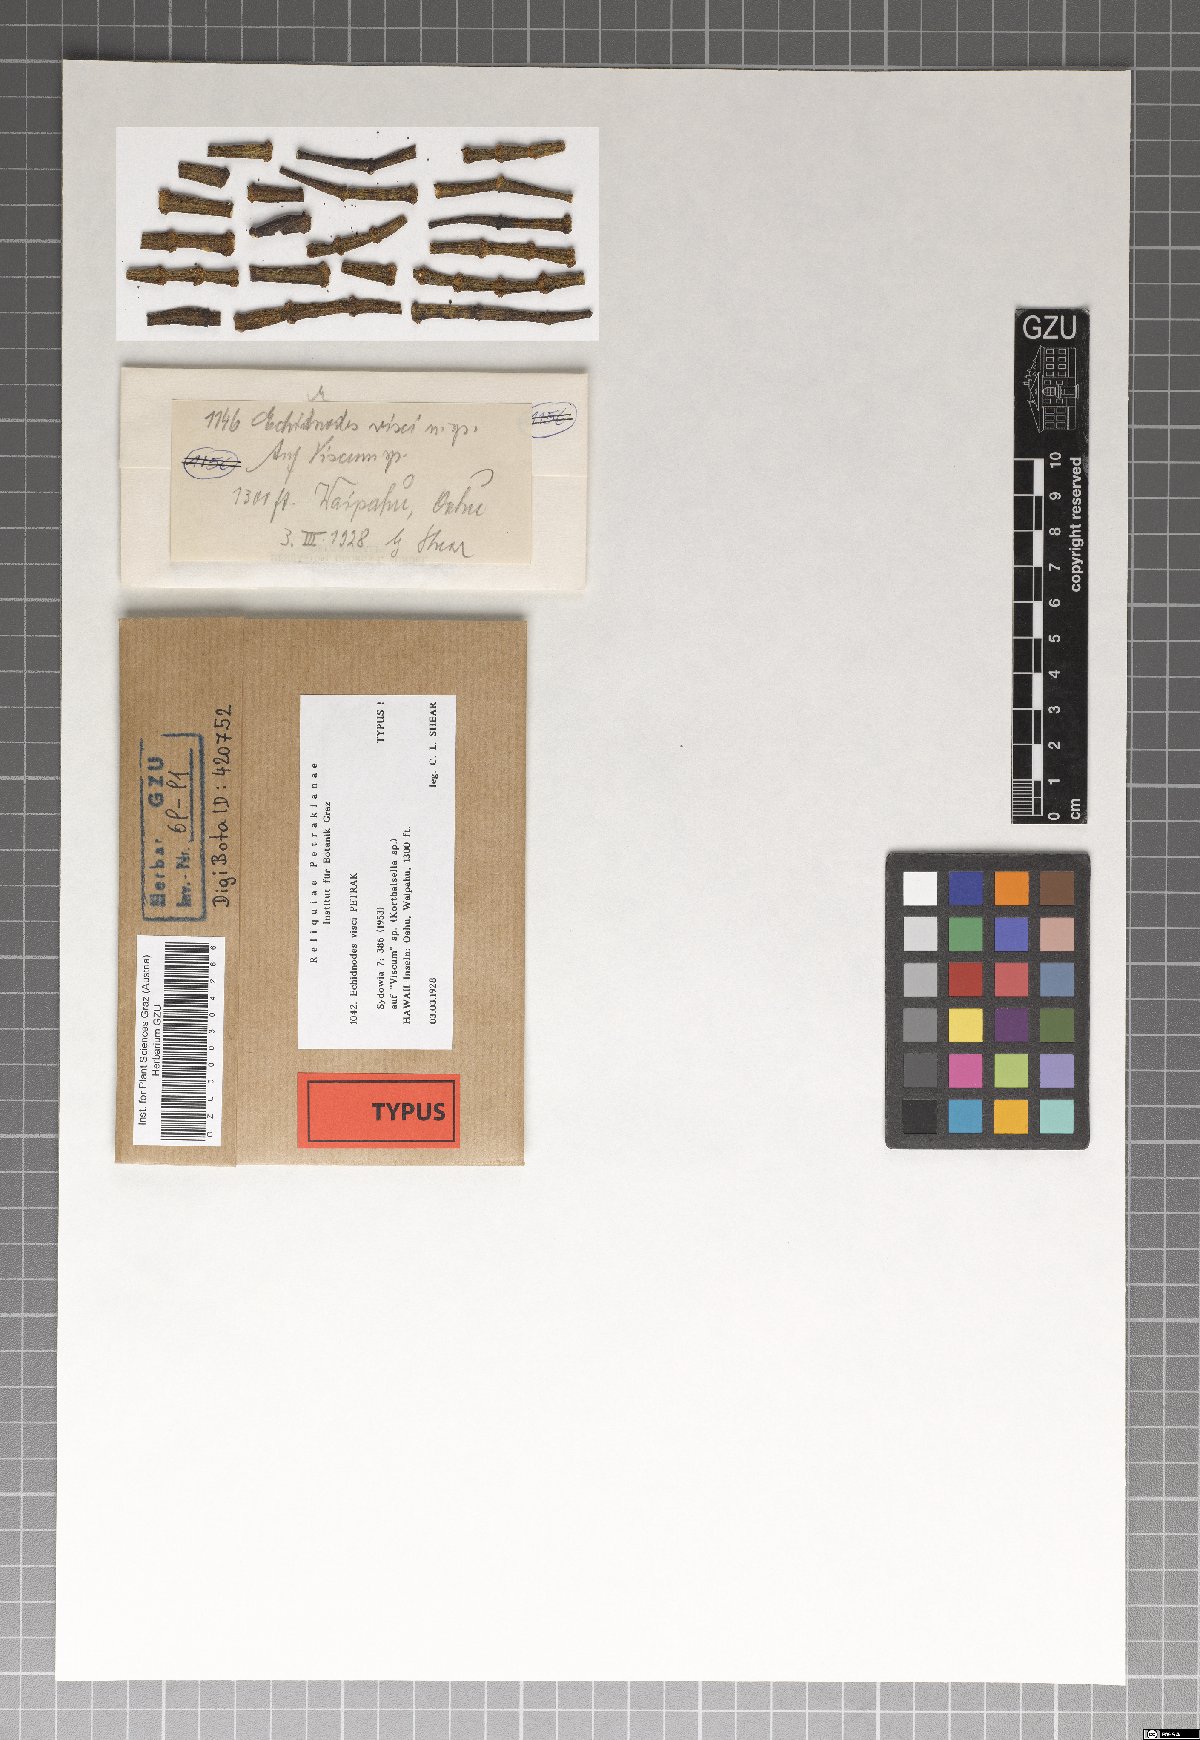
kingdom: Fungi
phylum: Ascomycota
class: Dothideomycetes
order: Asterinales
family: Asterinaceae
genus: Echidnodes
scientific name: Echidnodes visci
